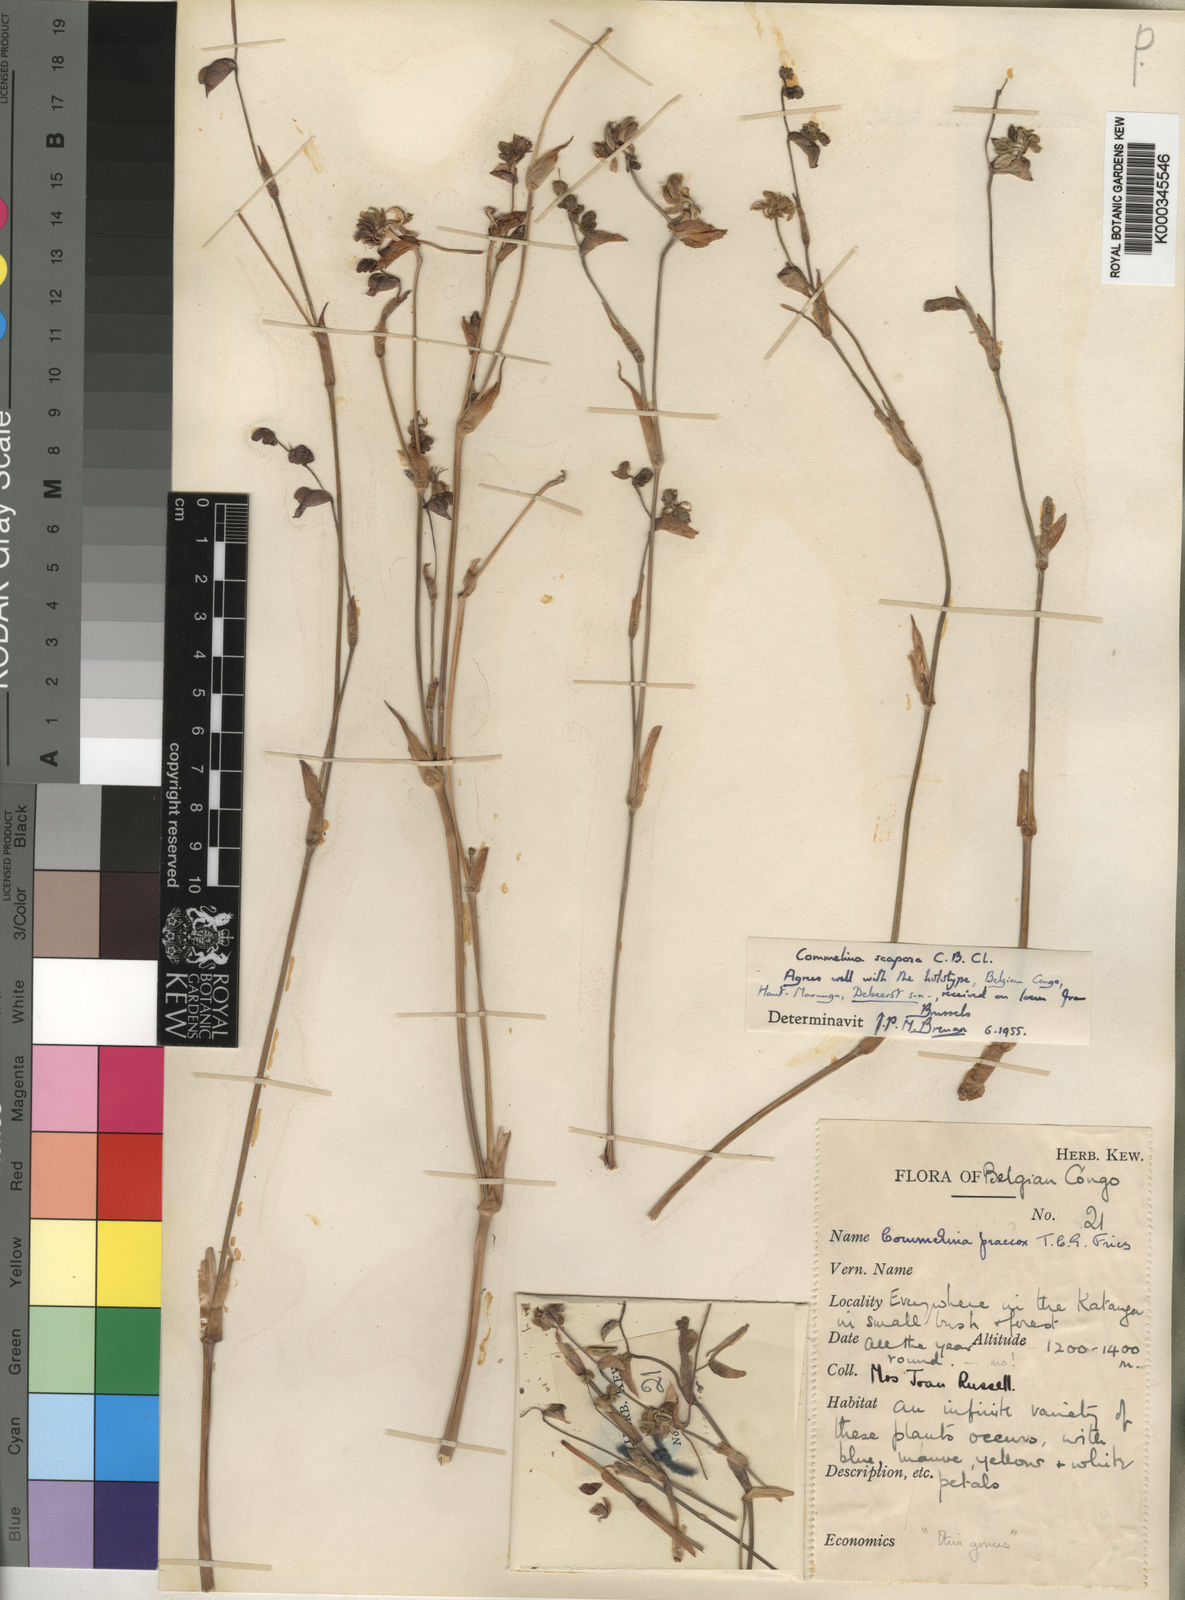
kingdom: Plantae
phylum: Tracheophyta
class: Liliopsida
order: Commelinales
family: Commelinaceae
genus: Commelina
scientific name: Commelina scaposa
